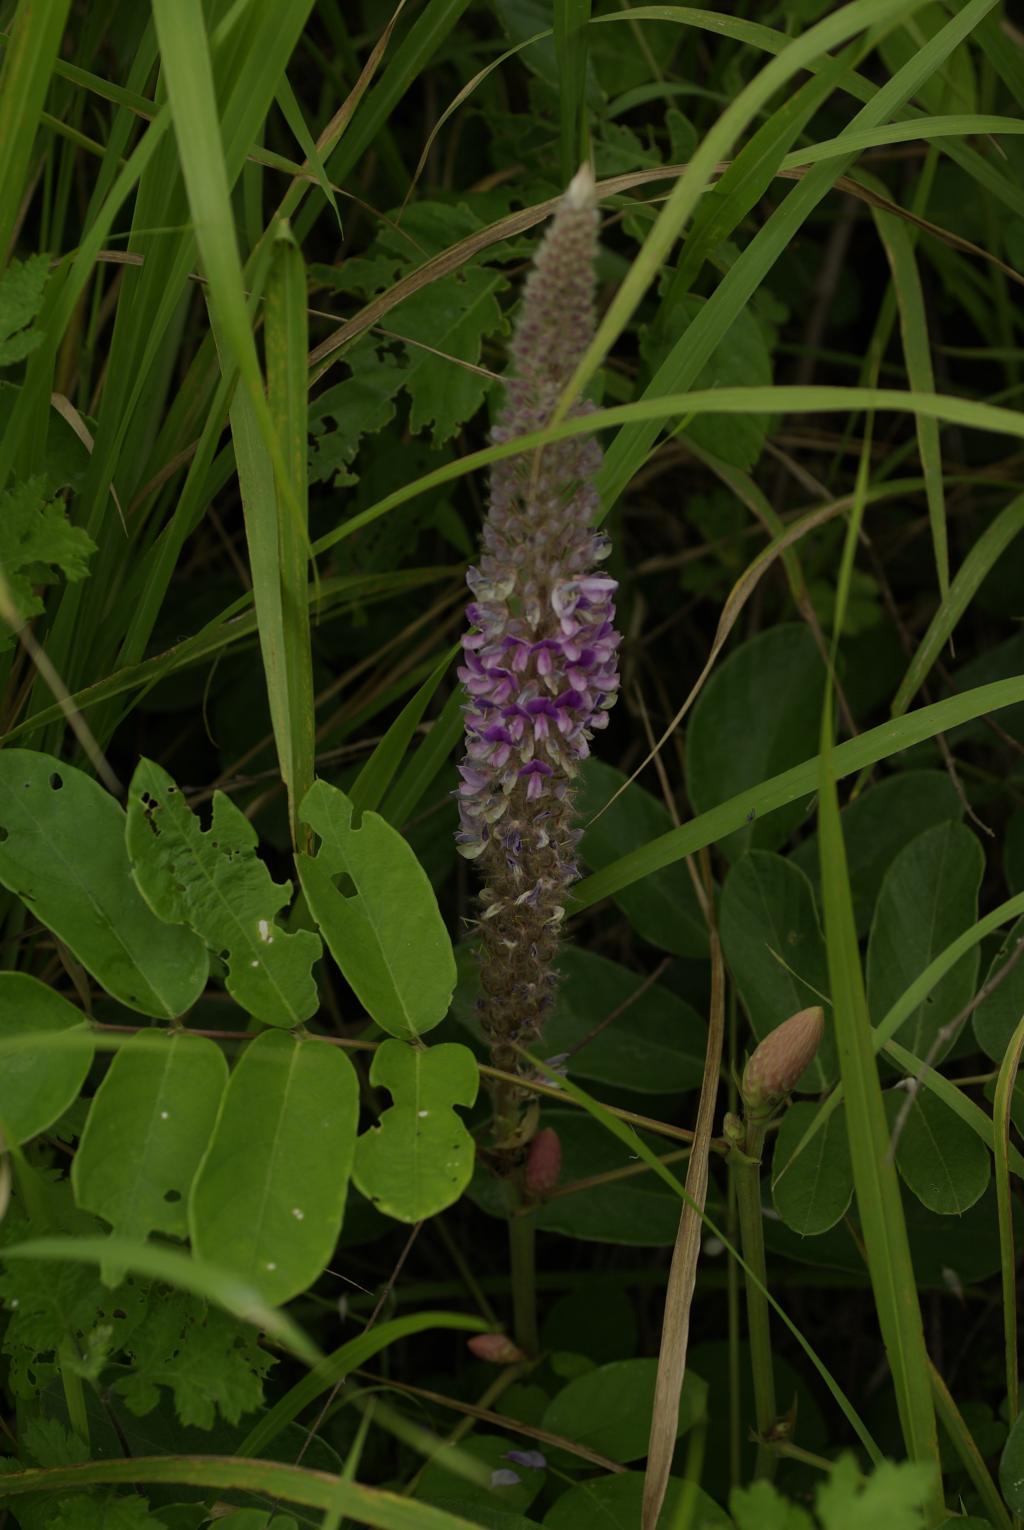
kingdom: Plantae
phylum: Tracheophyta
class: Magnoliopsida
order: Fabales
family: Fabaceae
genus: Uraria
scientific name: Uraria crinita
